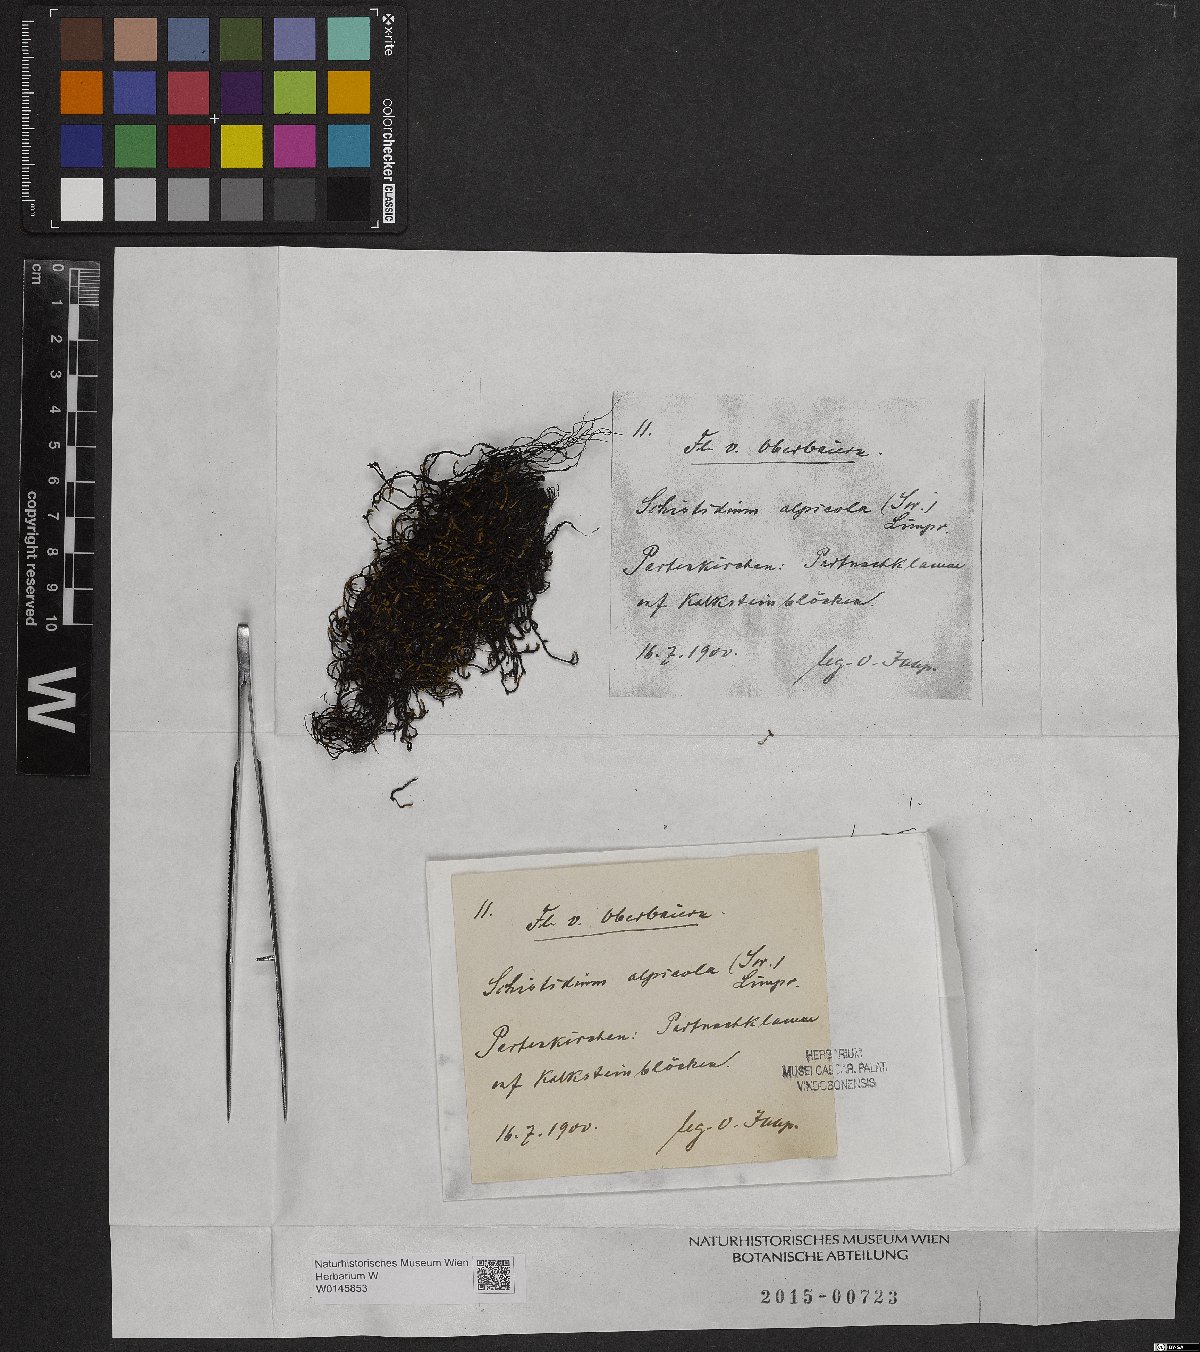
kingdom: Plantae
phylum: Bryophyta
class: Bryopsida
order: Grimmiales
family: Grimmiaceae
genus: Schistidium
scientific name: Schistidium agassizii
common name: Agassiz's bloom moss
